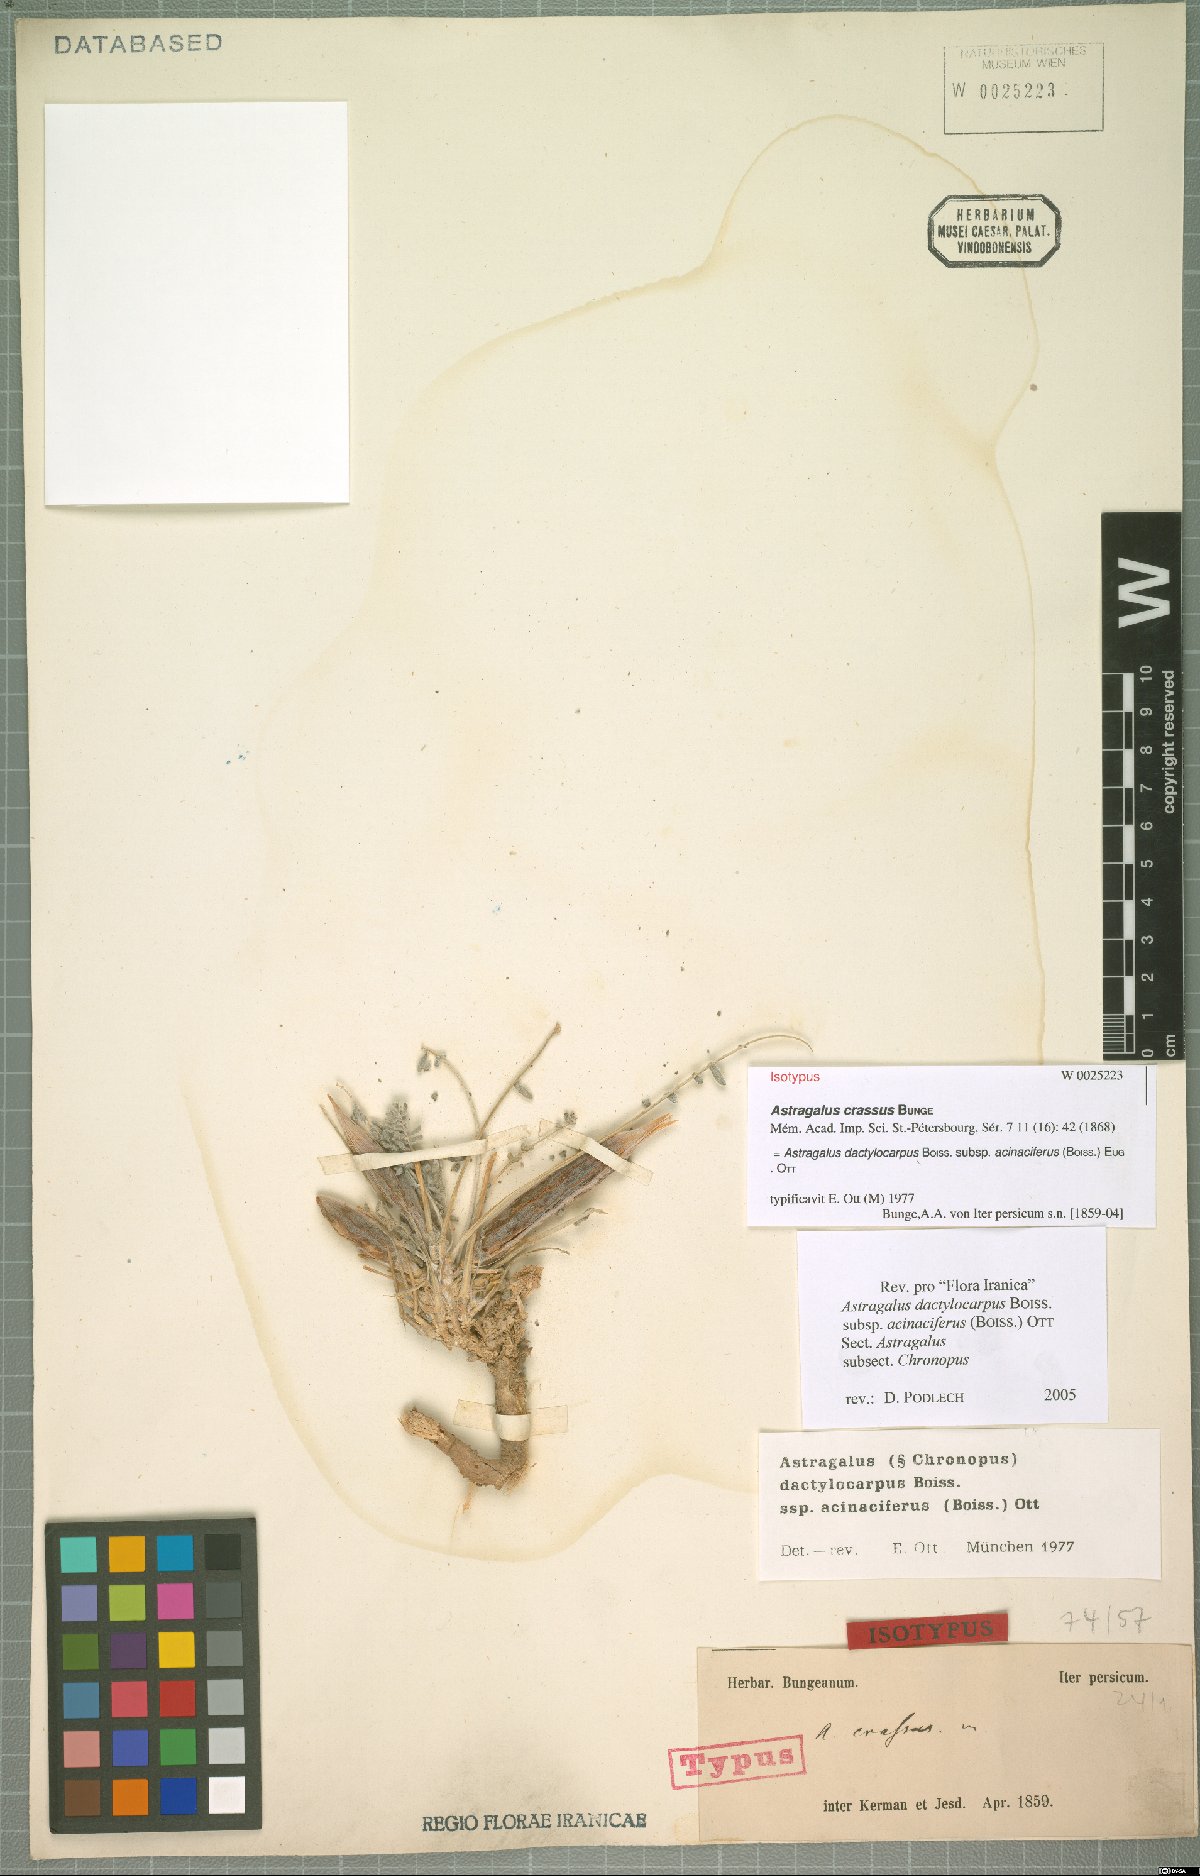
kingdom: Plantae
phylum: Tracheophyta
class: Magnoliopsida
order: Fabales
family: Fabaceae
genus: Astragalus
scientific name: Astragalus dactylocarpus
